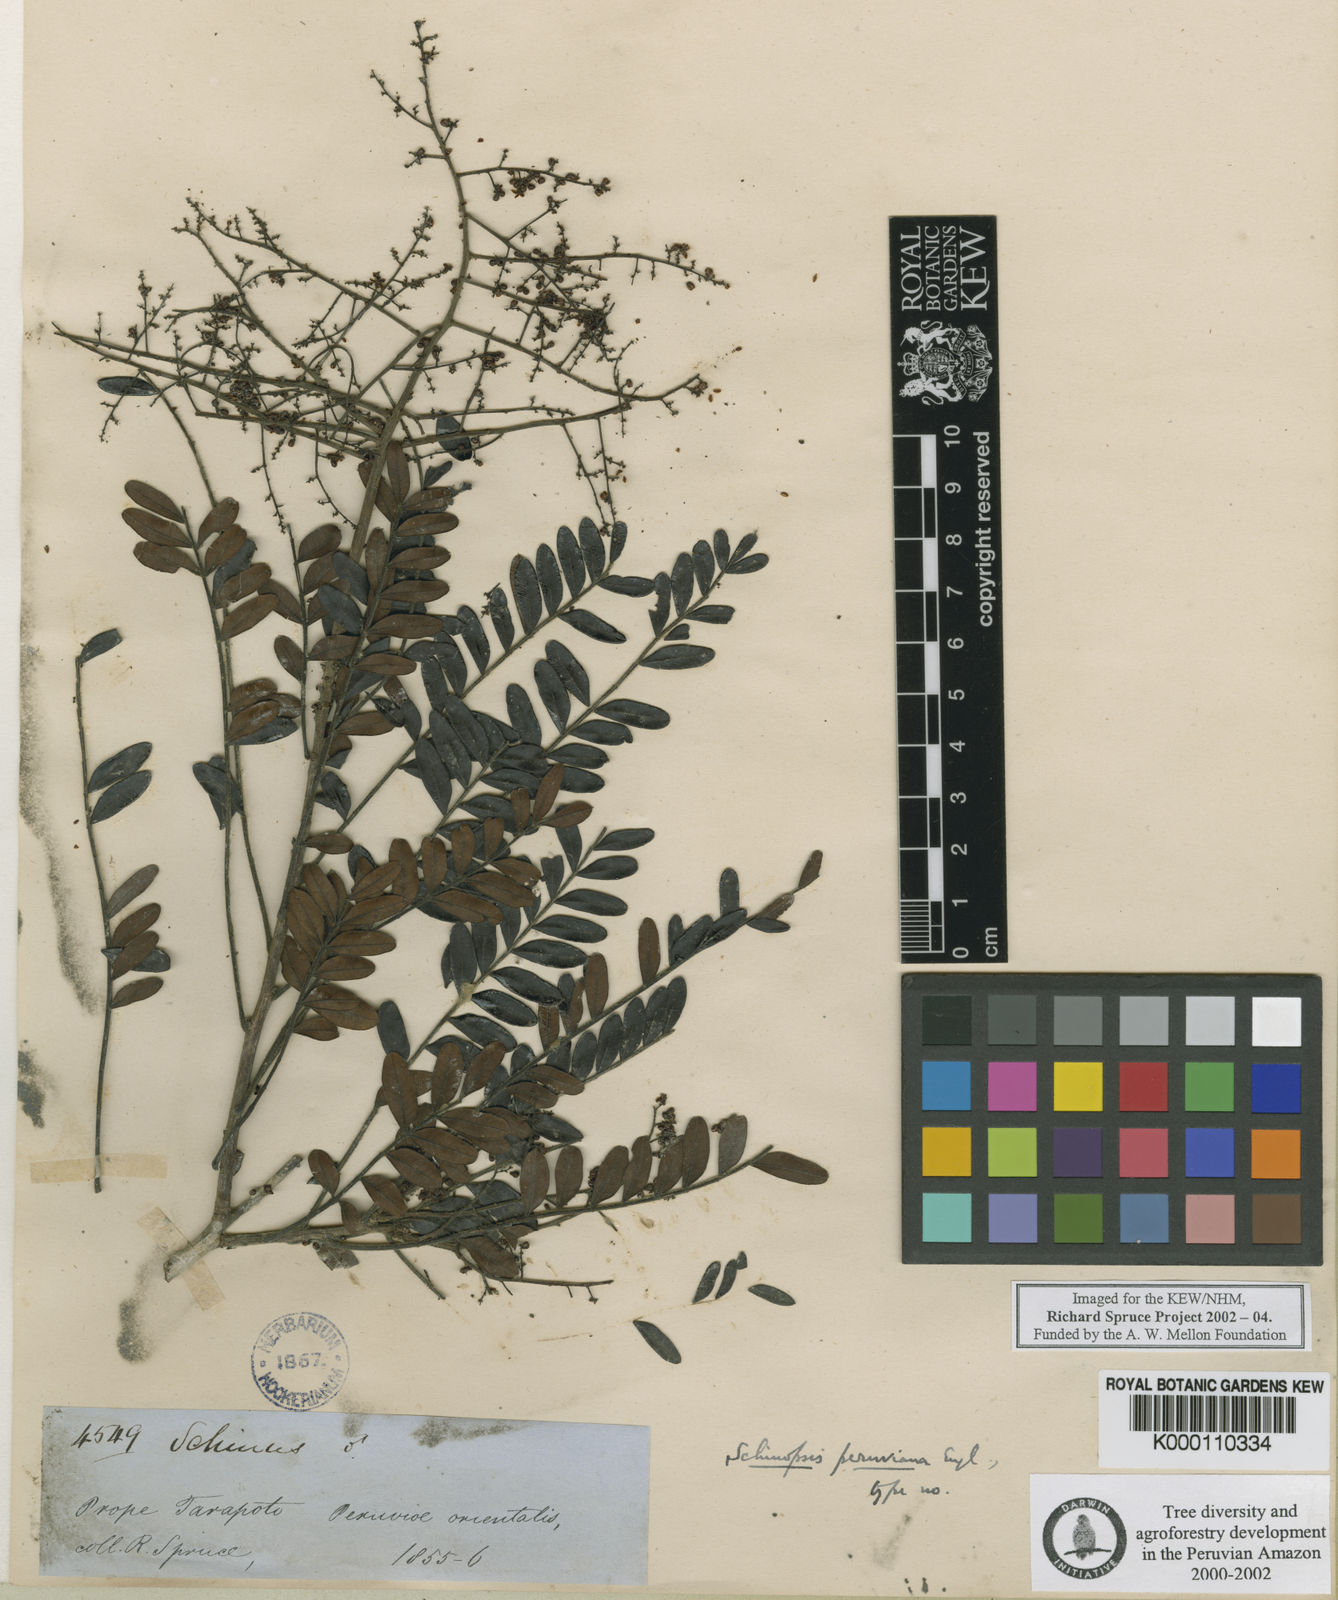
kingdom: Plantae
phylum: Tracheophyta
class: Magnoliopsida
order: Sapindales
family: Anacardiaceae
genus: Schinopsis
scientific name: Schinopsis peruviana
